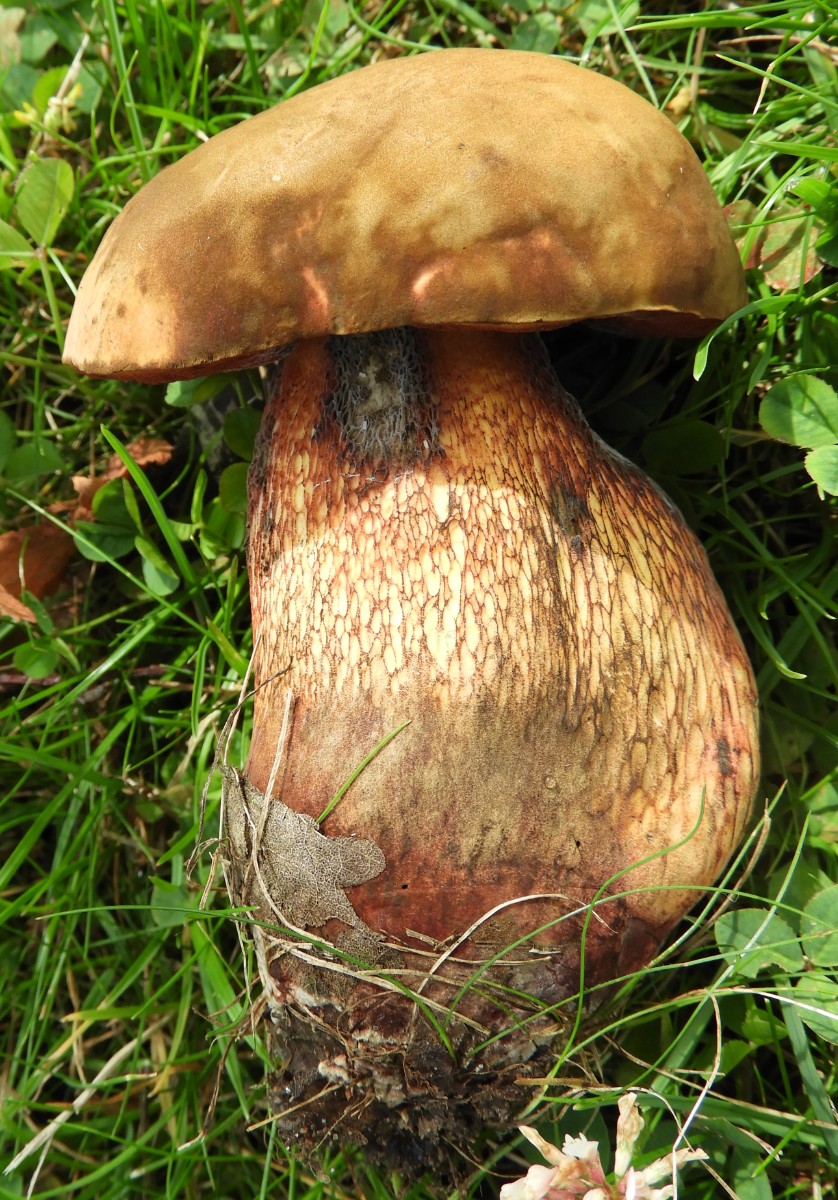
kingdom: Fungi
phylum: Basidiomycota
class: Agaricomycetes
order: Boletales
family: Boletaceae
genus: Suillellus
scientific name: Suillellus luridus
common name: netstokket indigorørhat
